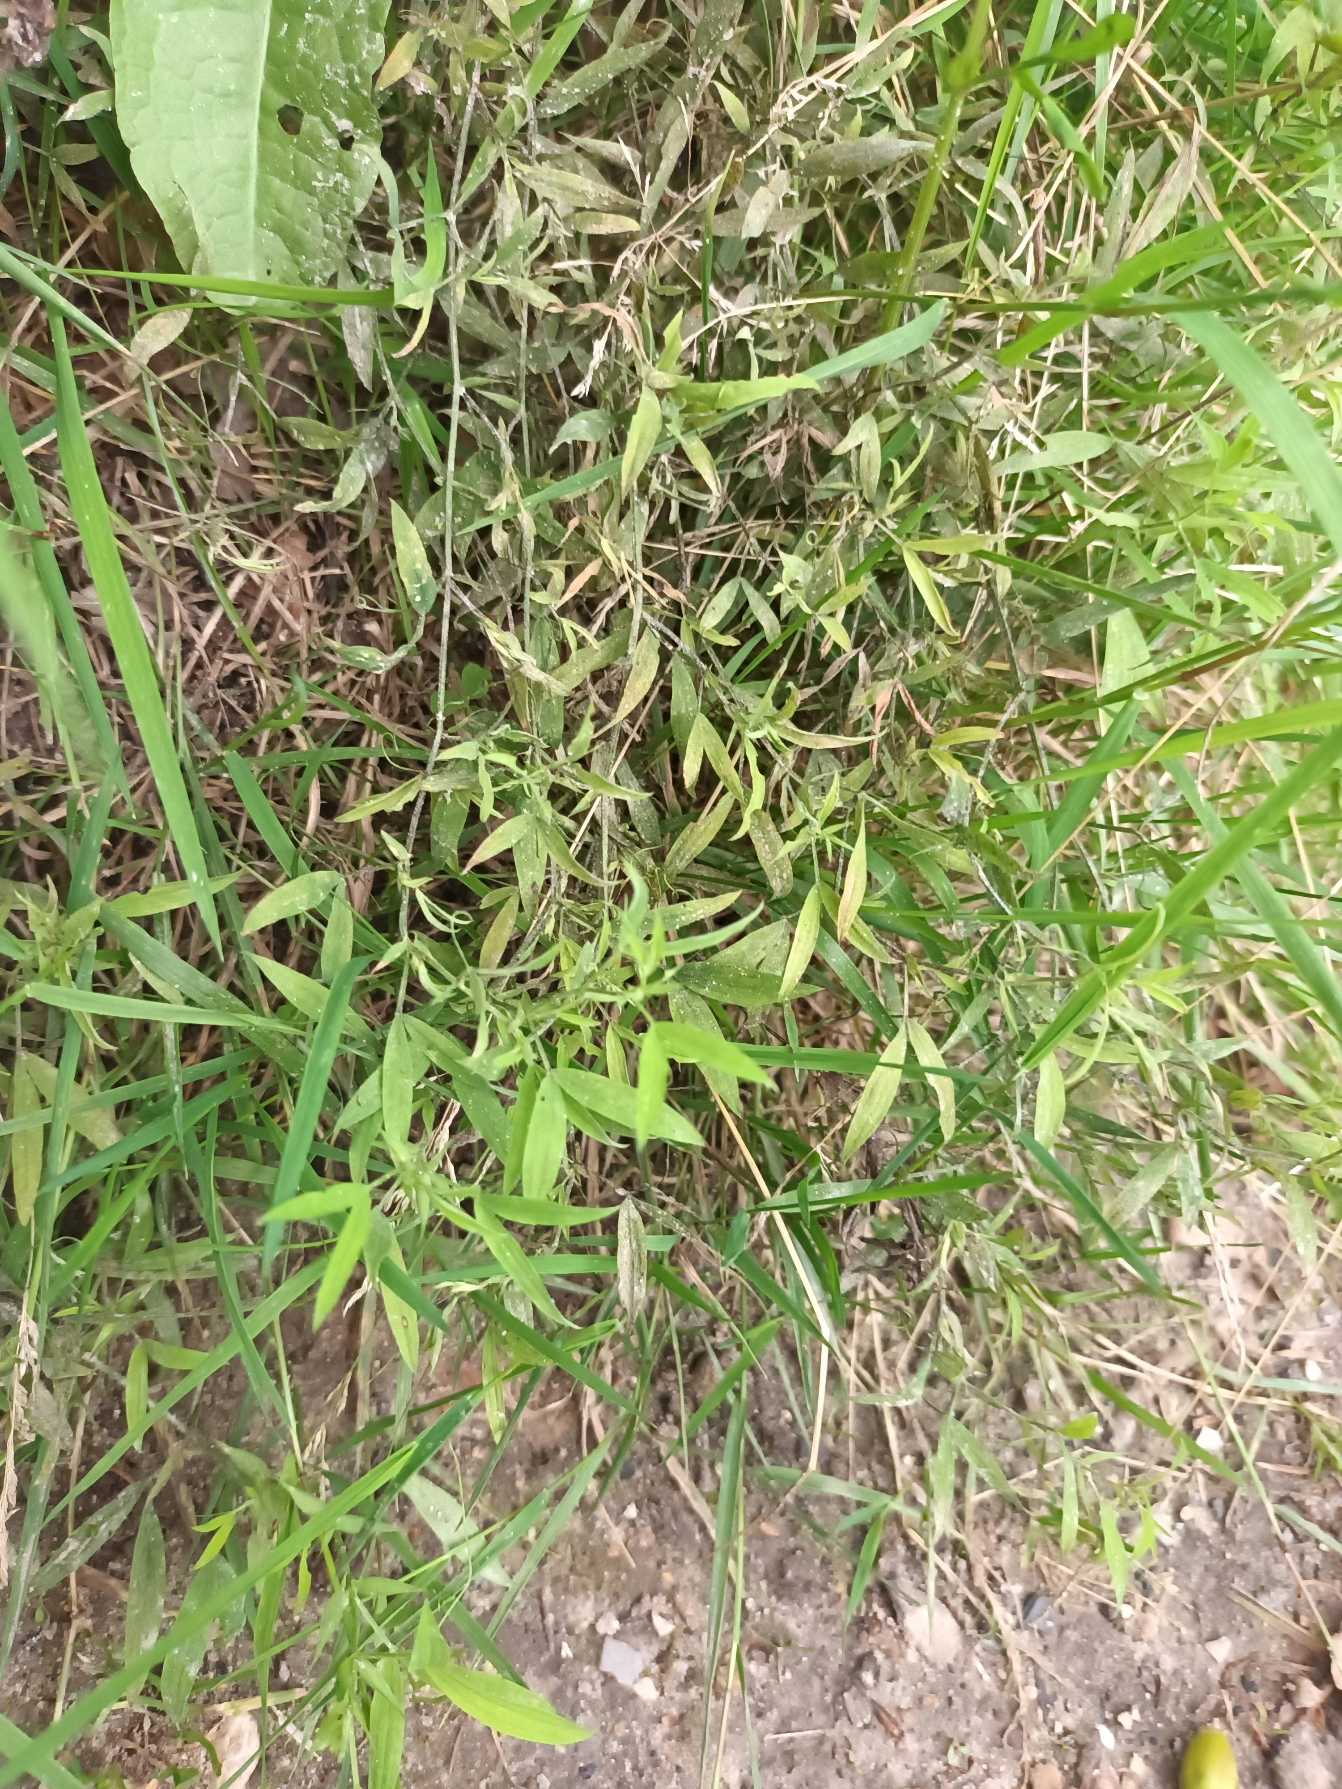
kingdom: Plantae
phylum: Tracheophyta
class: Magnoliopsida
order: Fabales
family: Fabaceae
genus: Lathyrus
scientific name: Lathyrus pratensis
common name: Gul fladbælg
